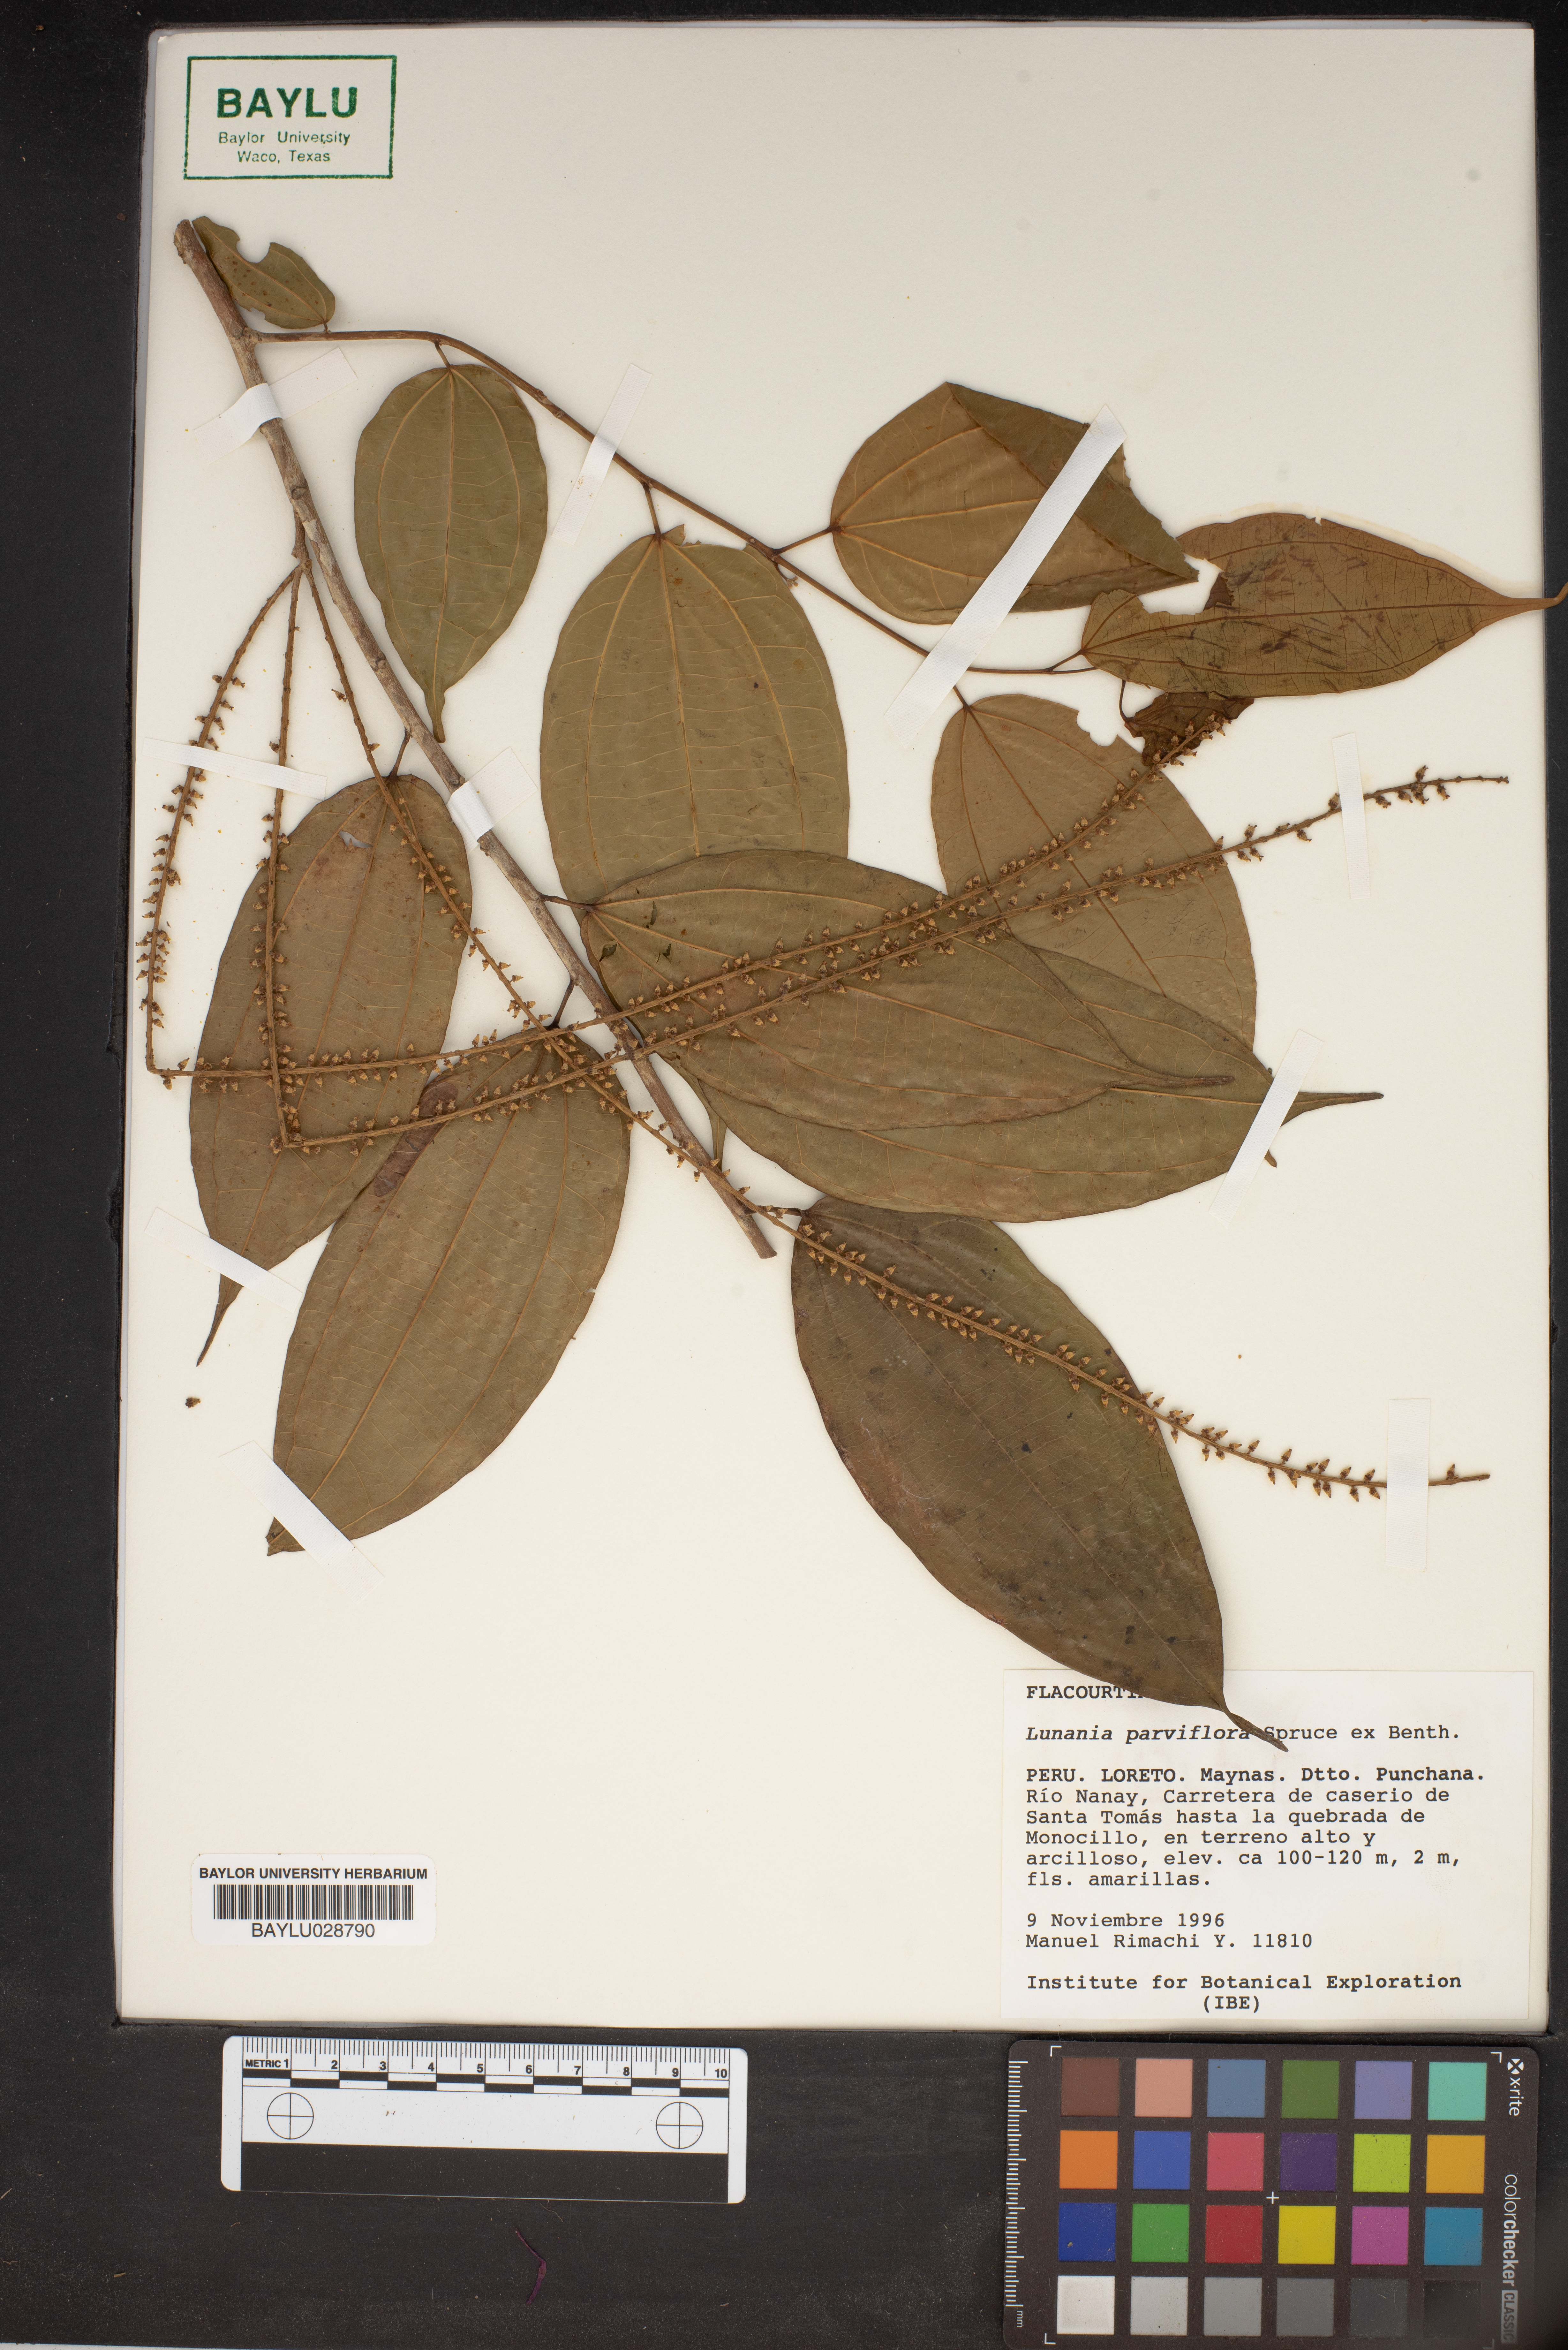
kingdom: Plantae
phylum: Tracheophyta
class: Magnoliopsida
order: Malpighiales
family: Salicaceae
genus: Lunania
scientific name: Lunania parviflora
